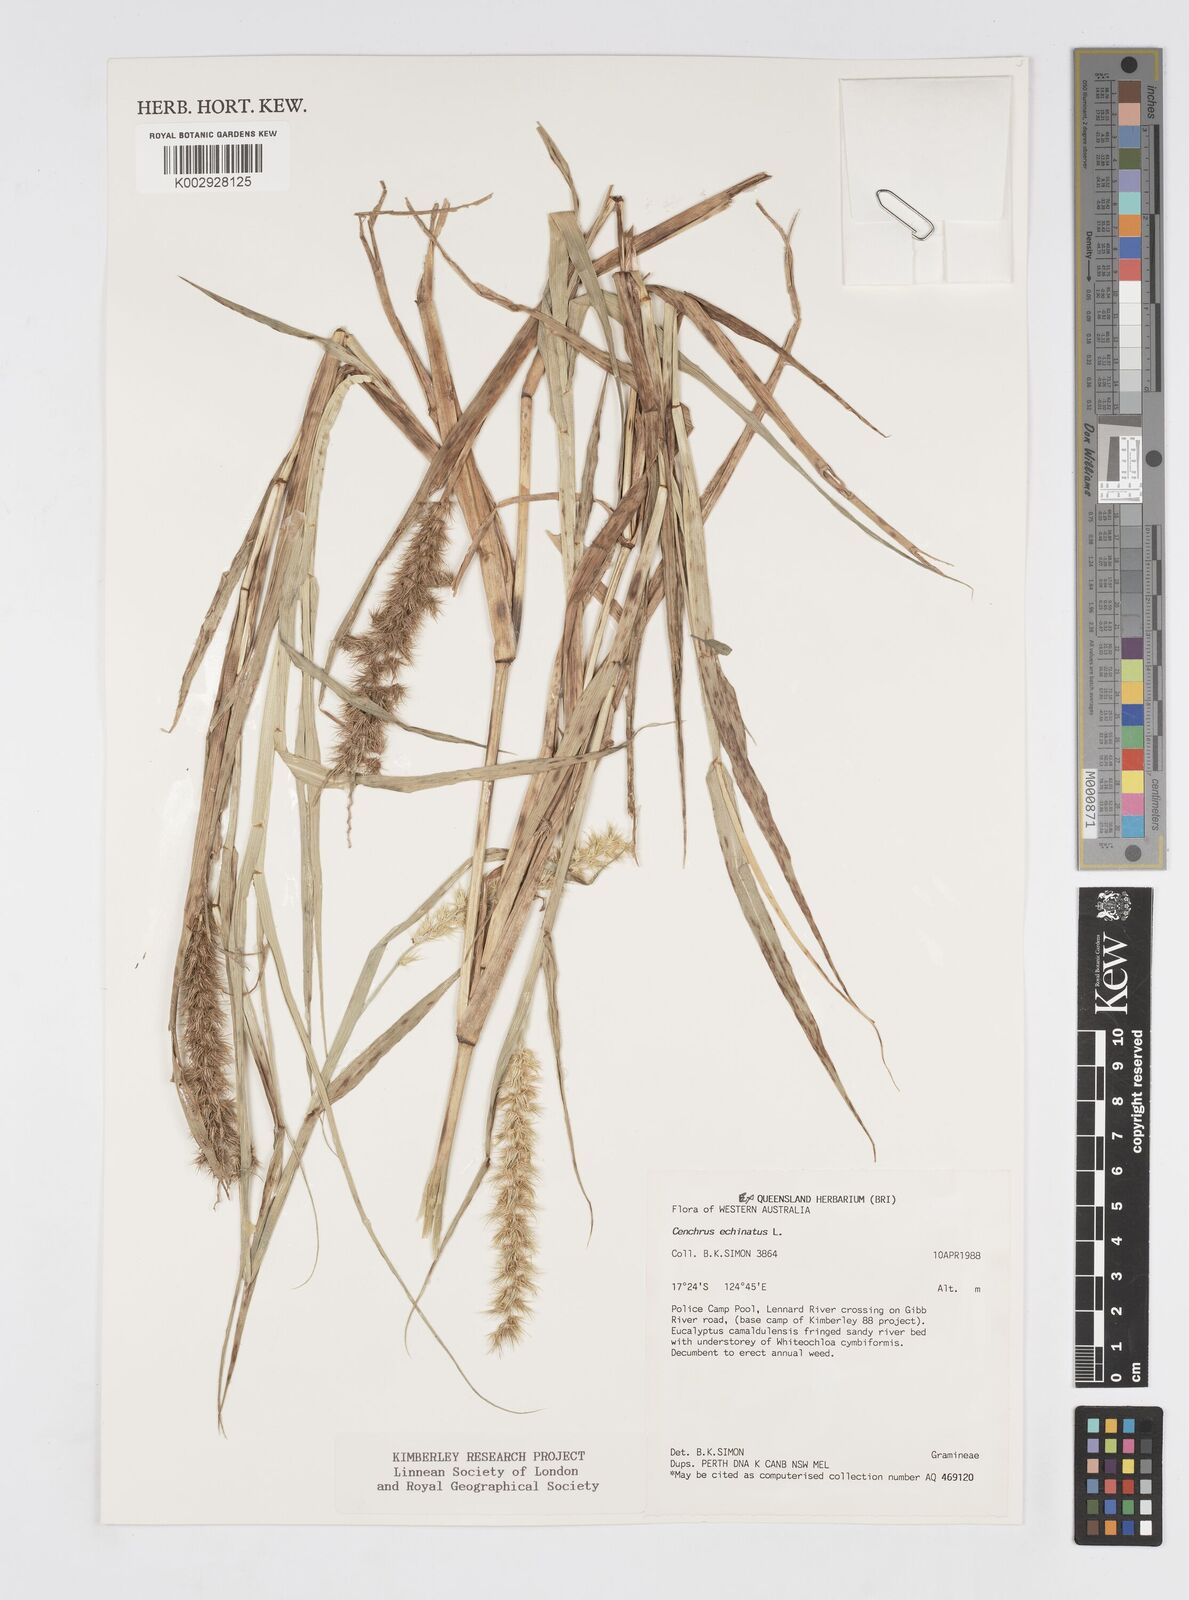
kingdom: Plantae
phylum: Tracheophyta
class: Liliopsida
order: Poales
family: Poaceae
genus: Cenchrus
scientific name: Cenchrus echinatus
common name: Southern sandbur
